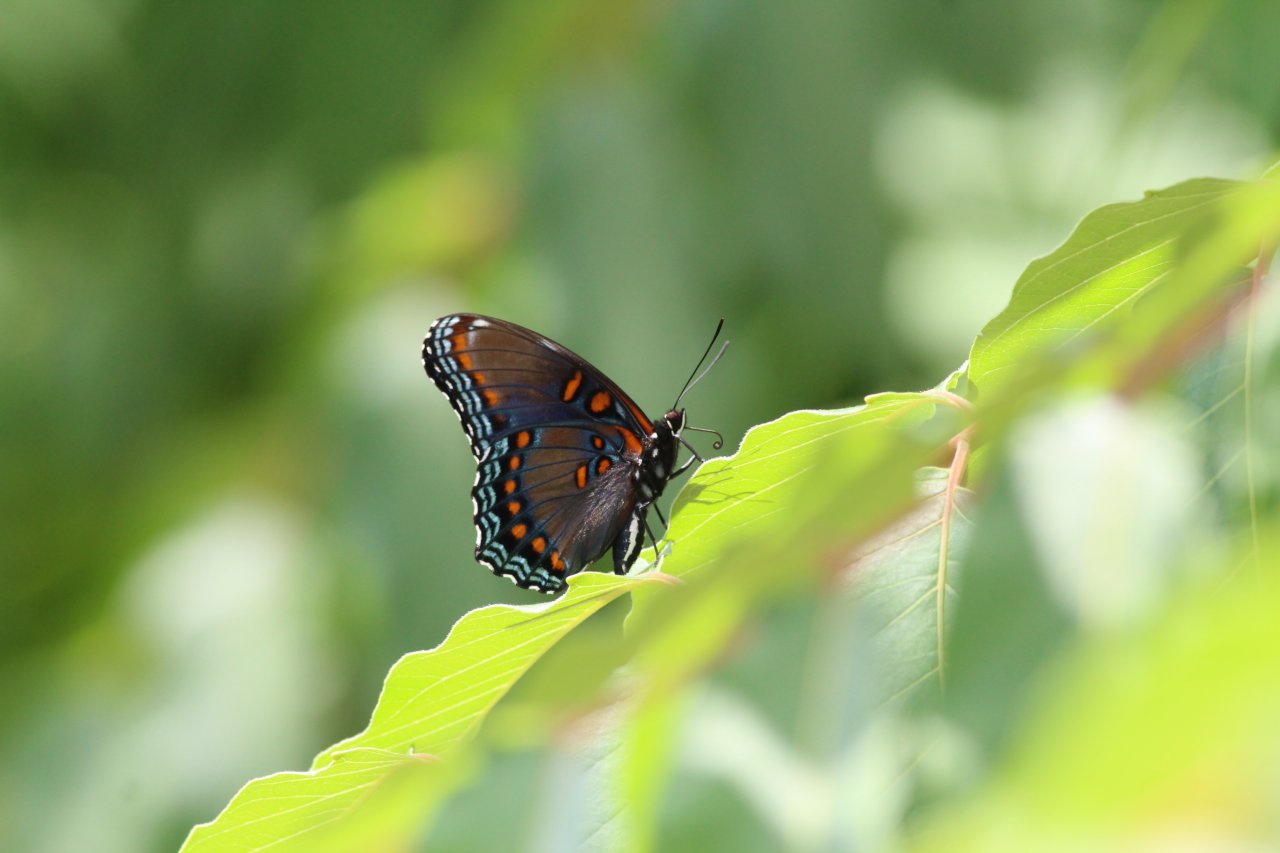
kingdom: Animalia
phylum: Arthropoda
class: Insecta
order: Lepidoptera
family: Nymphalidae
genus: Limenitis
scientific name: Limenitis astyanax
